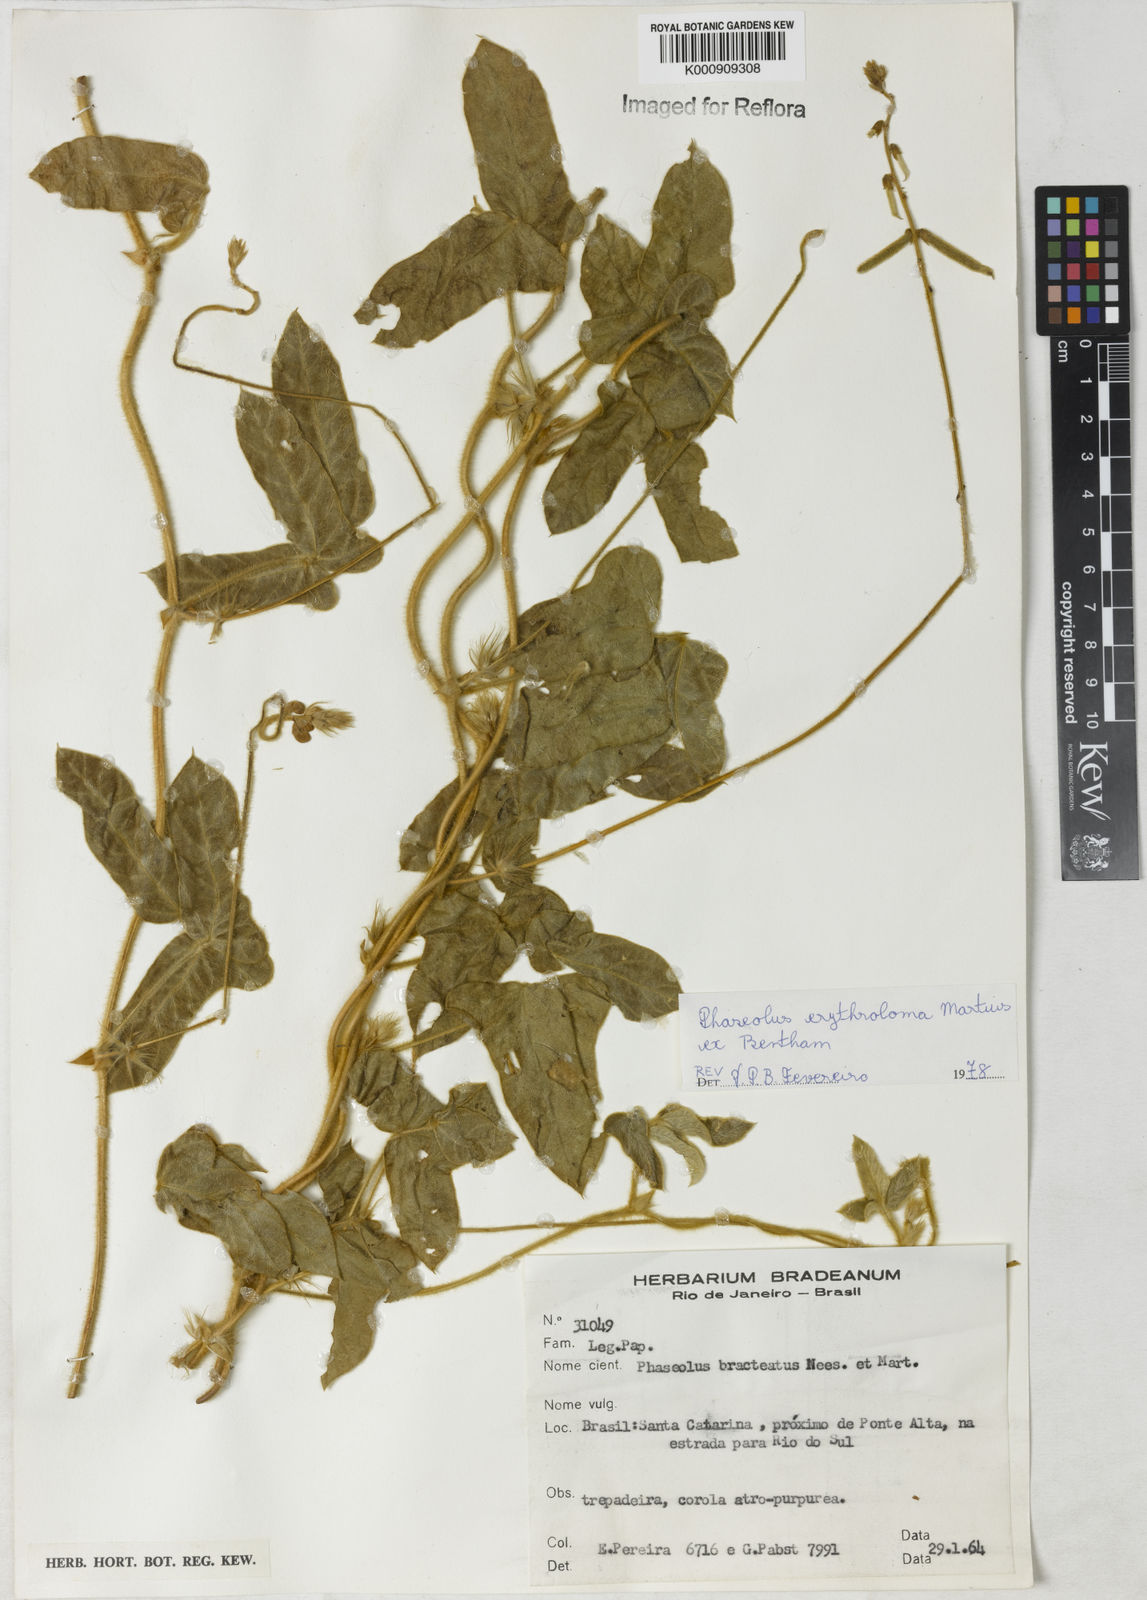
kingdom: Plantae
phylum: Tracheophyta
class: Magnoliopsida
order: Fabales
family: Fabaceae
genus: Macroptilium
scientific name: Macroptilium erythroloma
